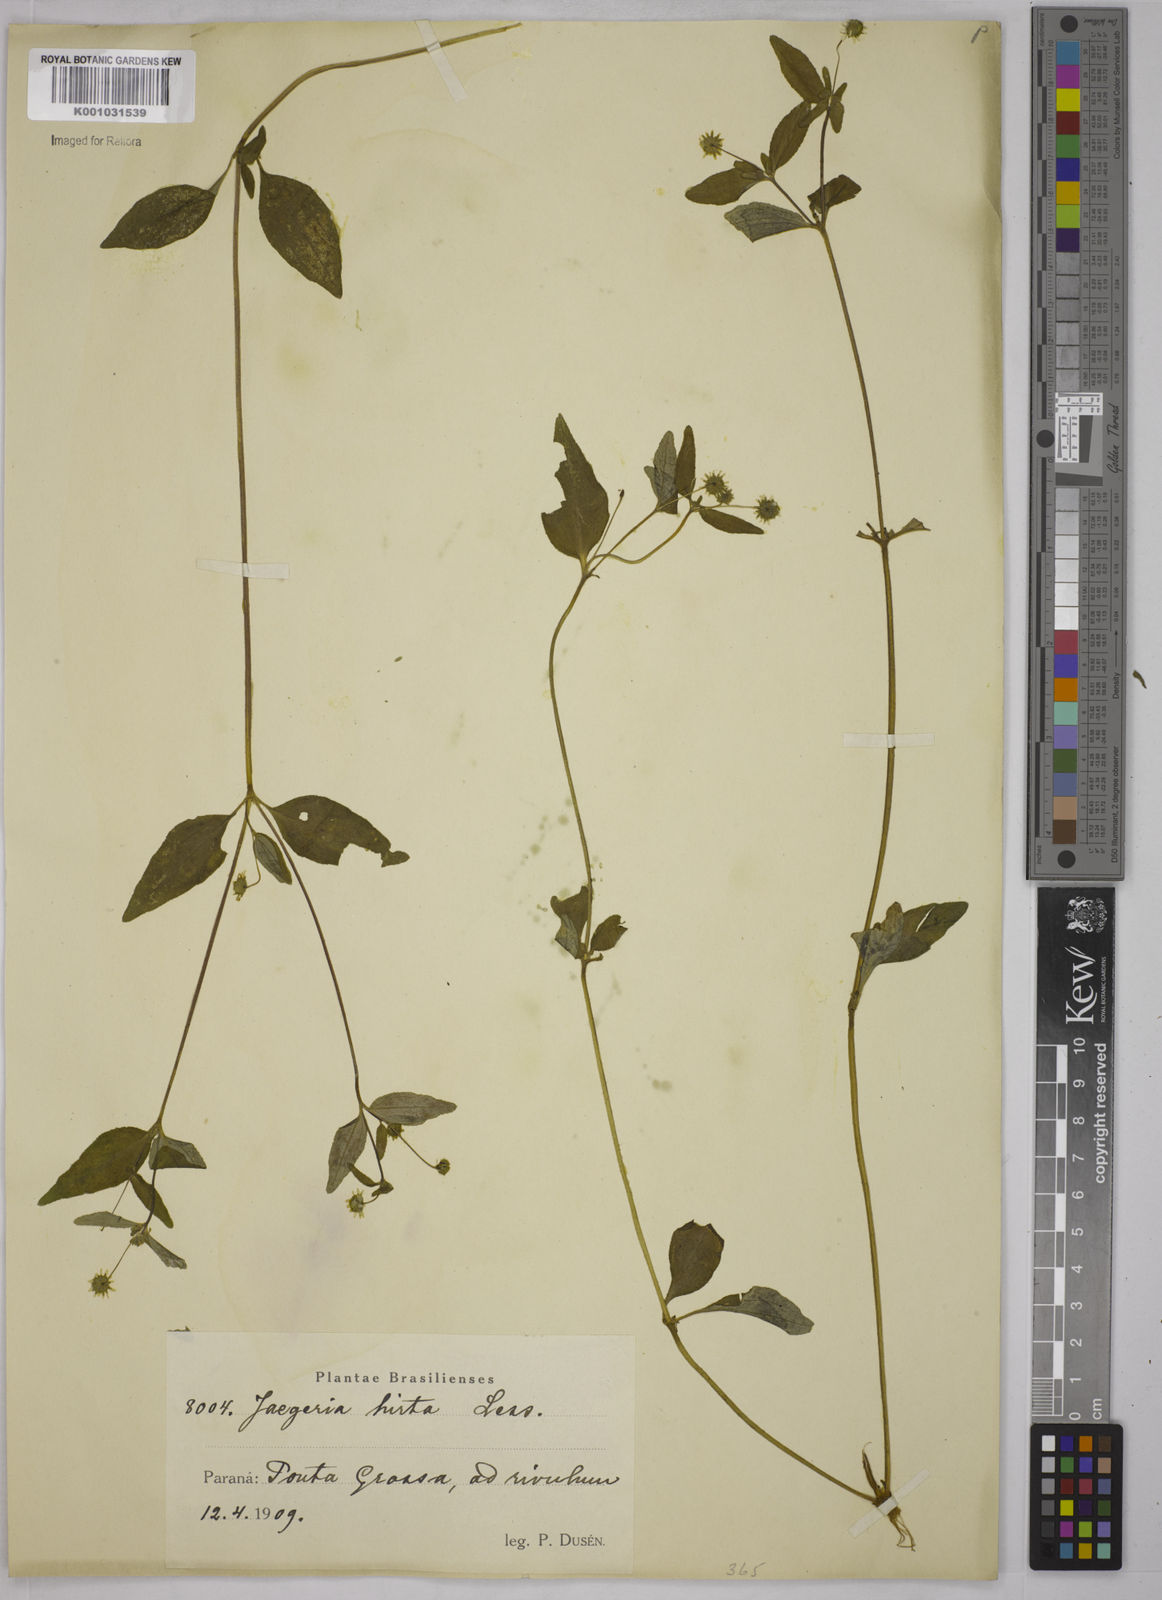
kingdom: Plantae
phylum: Tracheophyta
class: Magnoliopsida
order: Asterales
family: Asteraceae
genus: Jaegeria
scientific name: Jaegeria hirta
